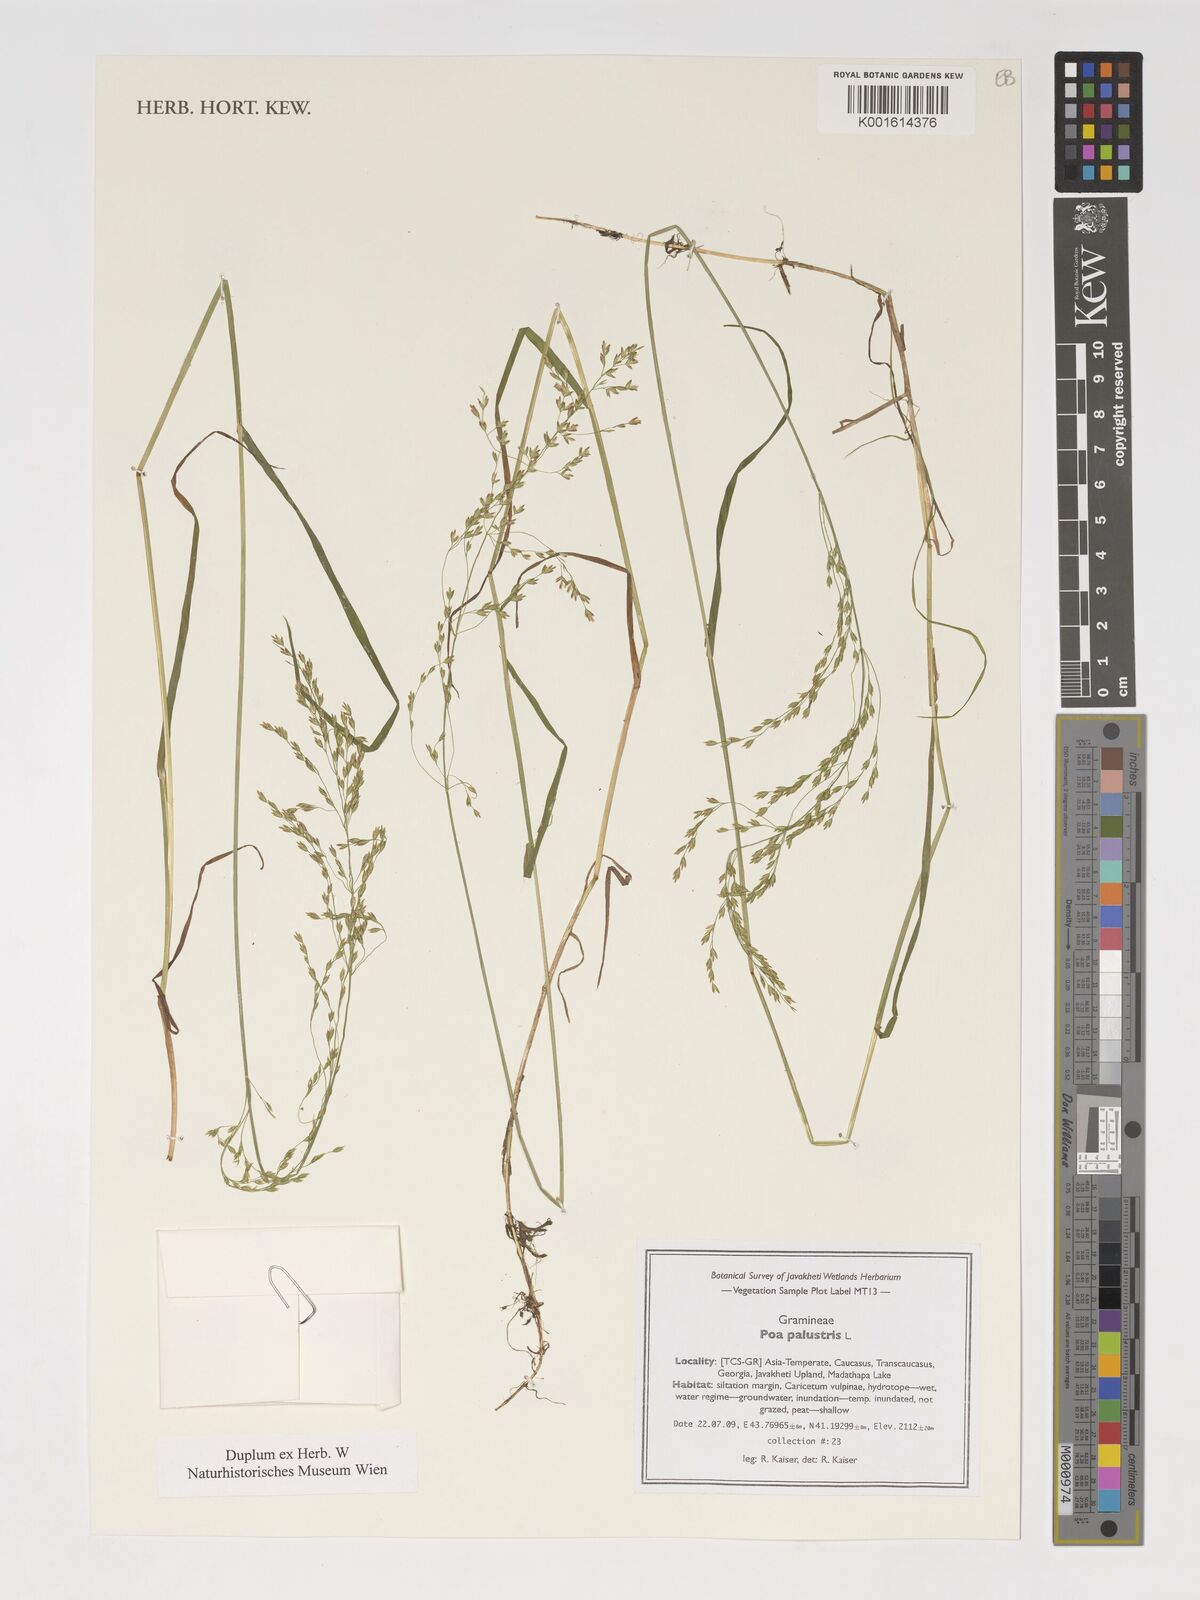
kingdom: Plantae
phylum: Tracheophyta
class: Liliopsida
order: Poales
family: Poaceae
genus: Poa
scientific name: Poa trivialis
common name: Rough bluegrass
